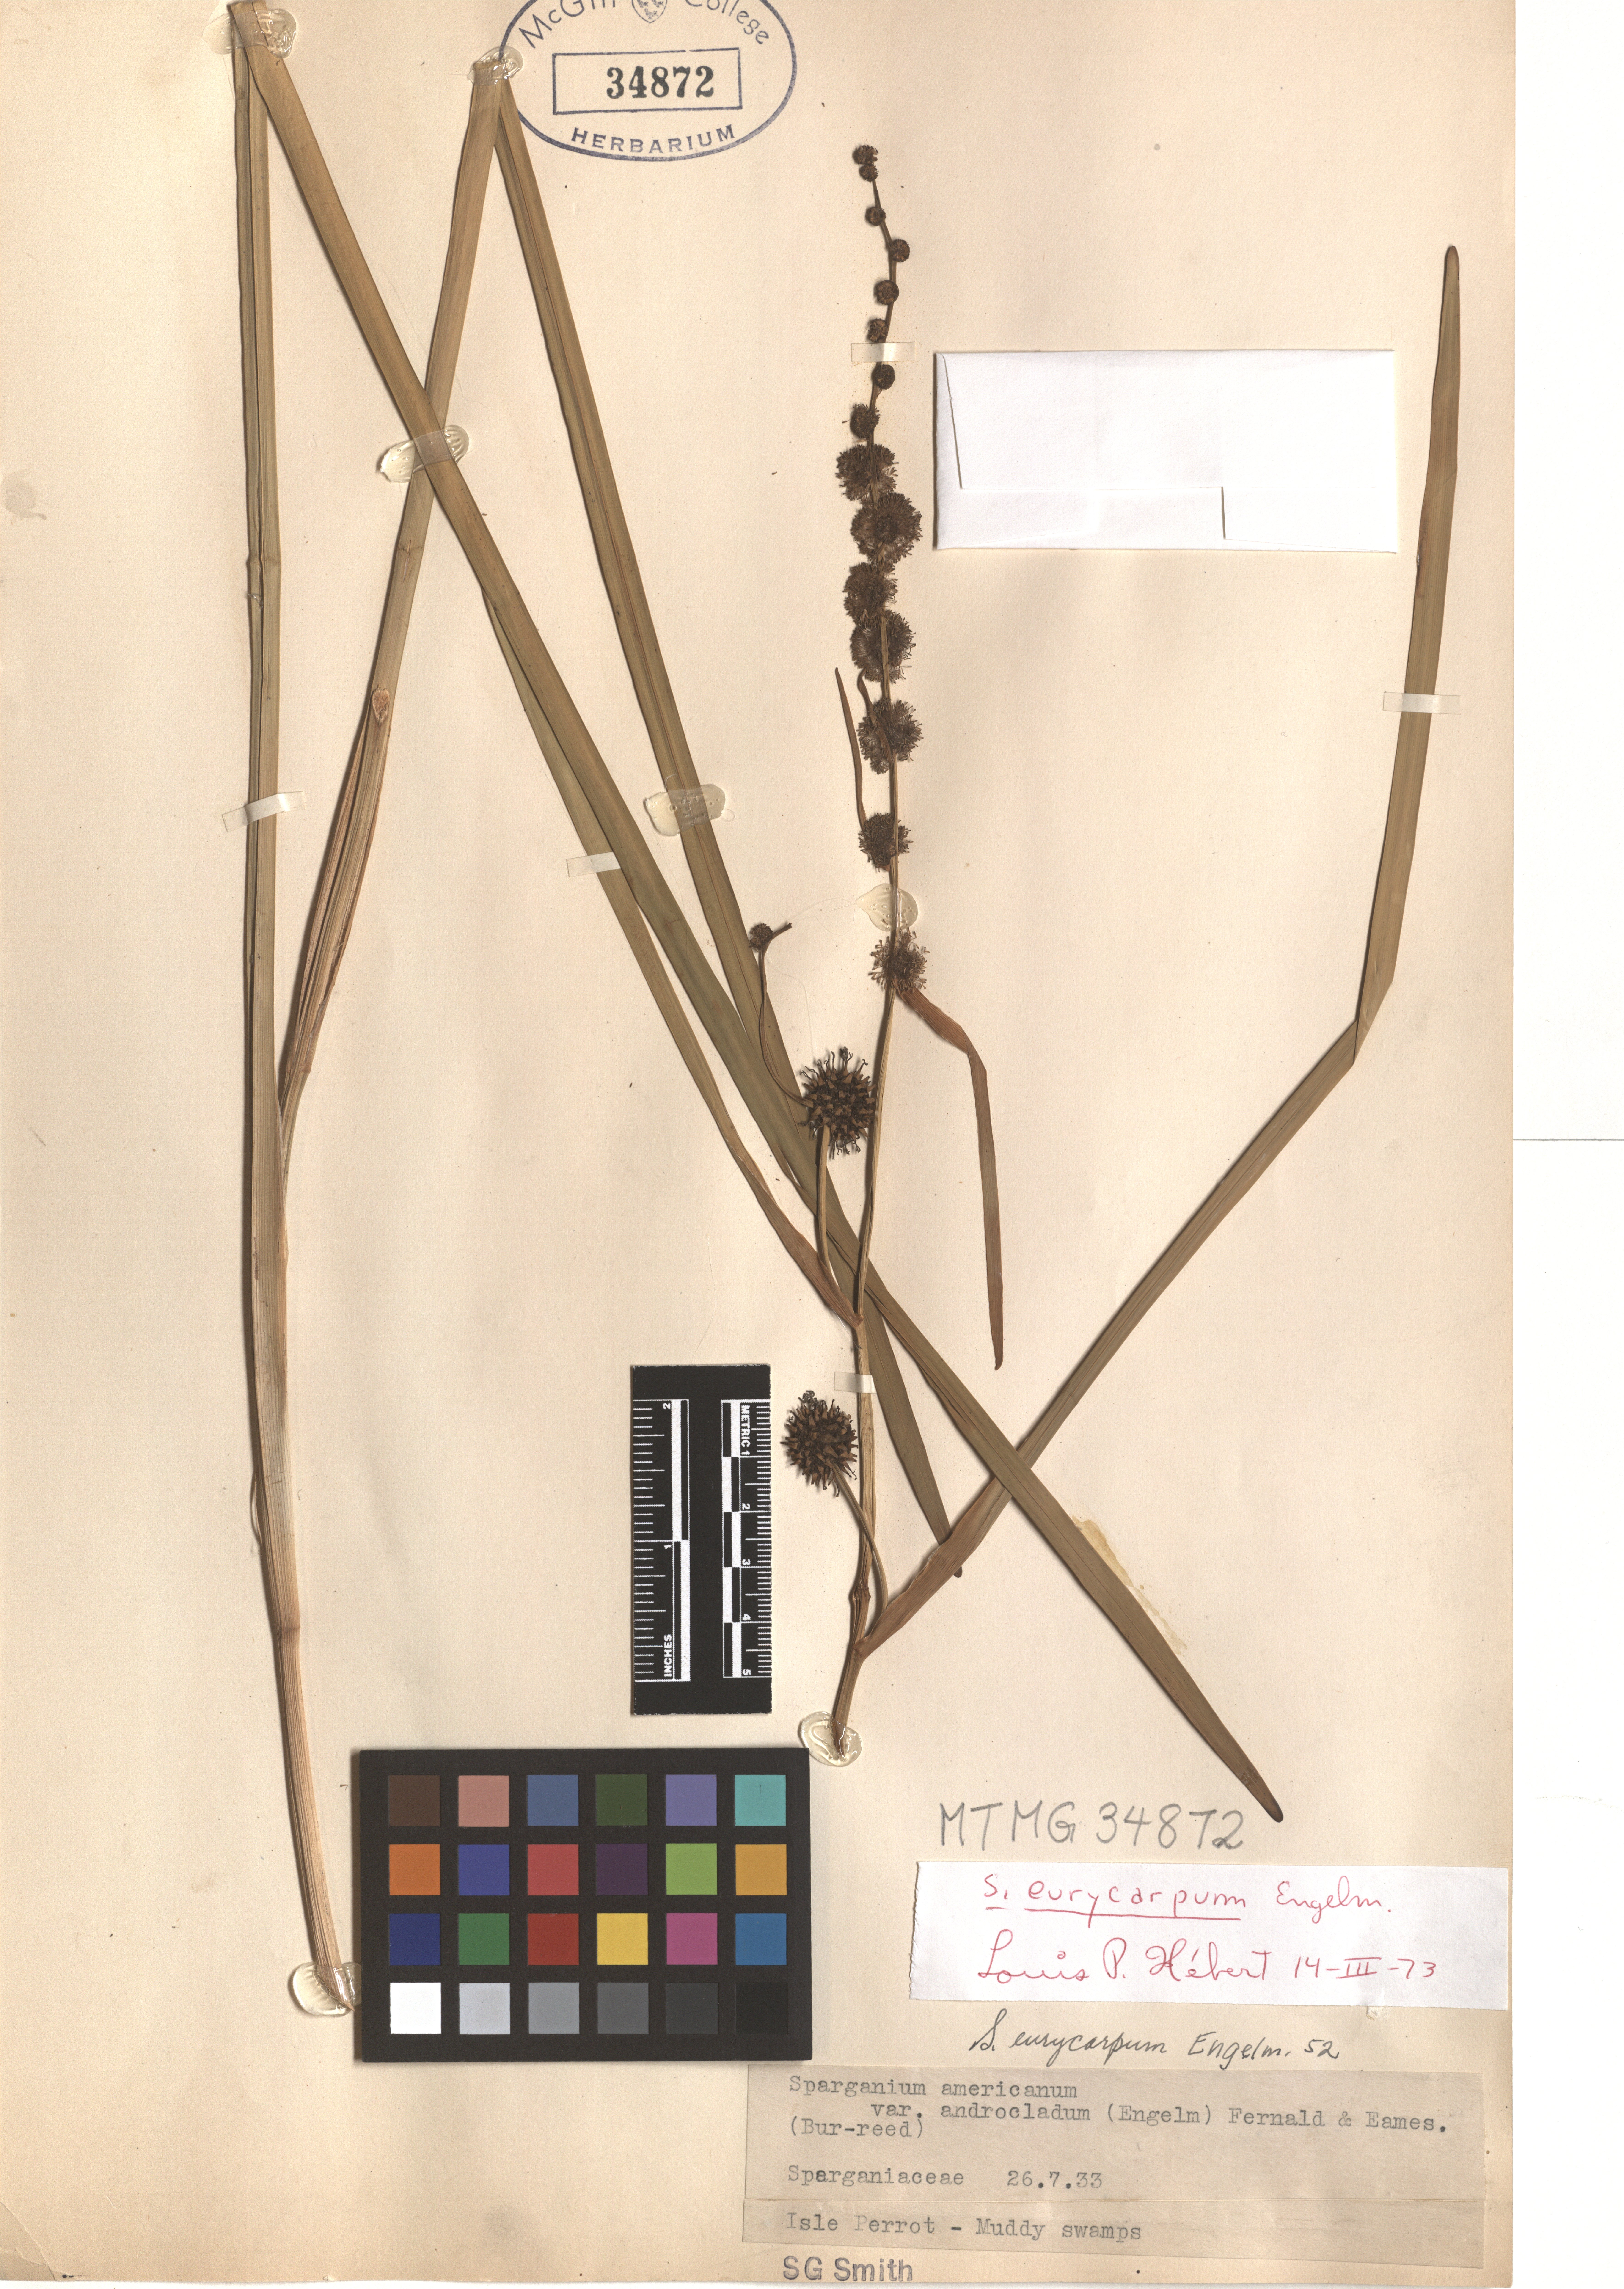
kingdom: Plantae
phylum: Tracheophyta
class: Liliopsida
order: Poales
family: Typhaceae
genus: Sparganium
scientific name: Sparganium eurycarpum
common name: Broad-fruited burreed
